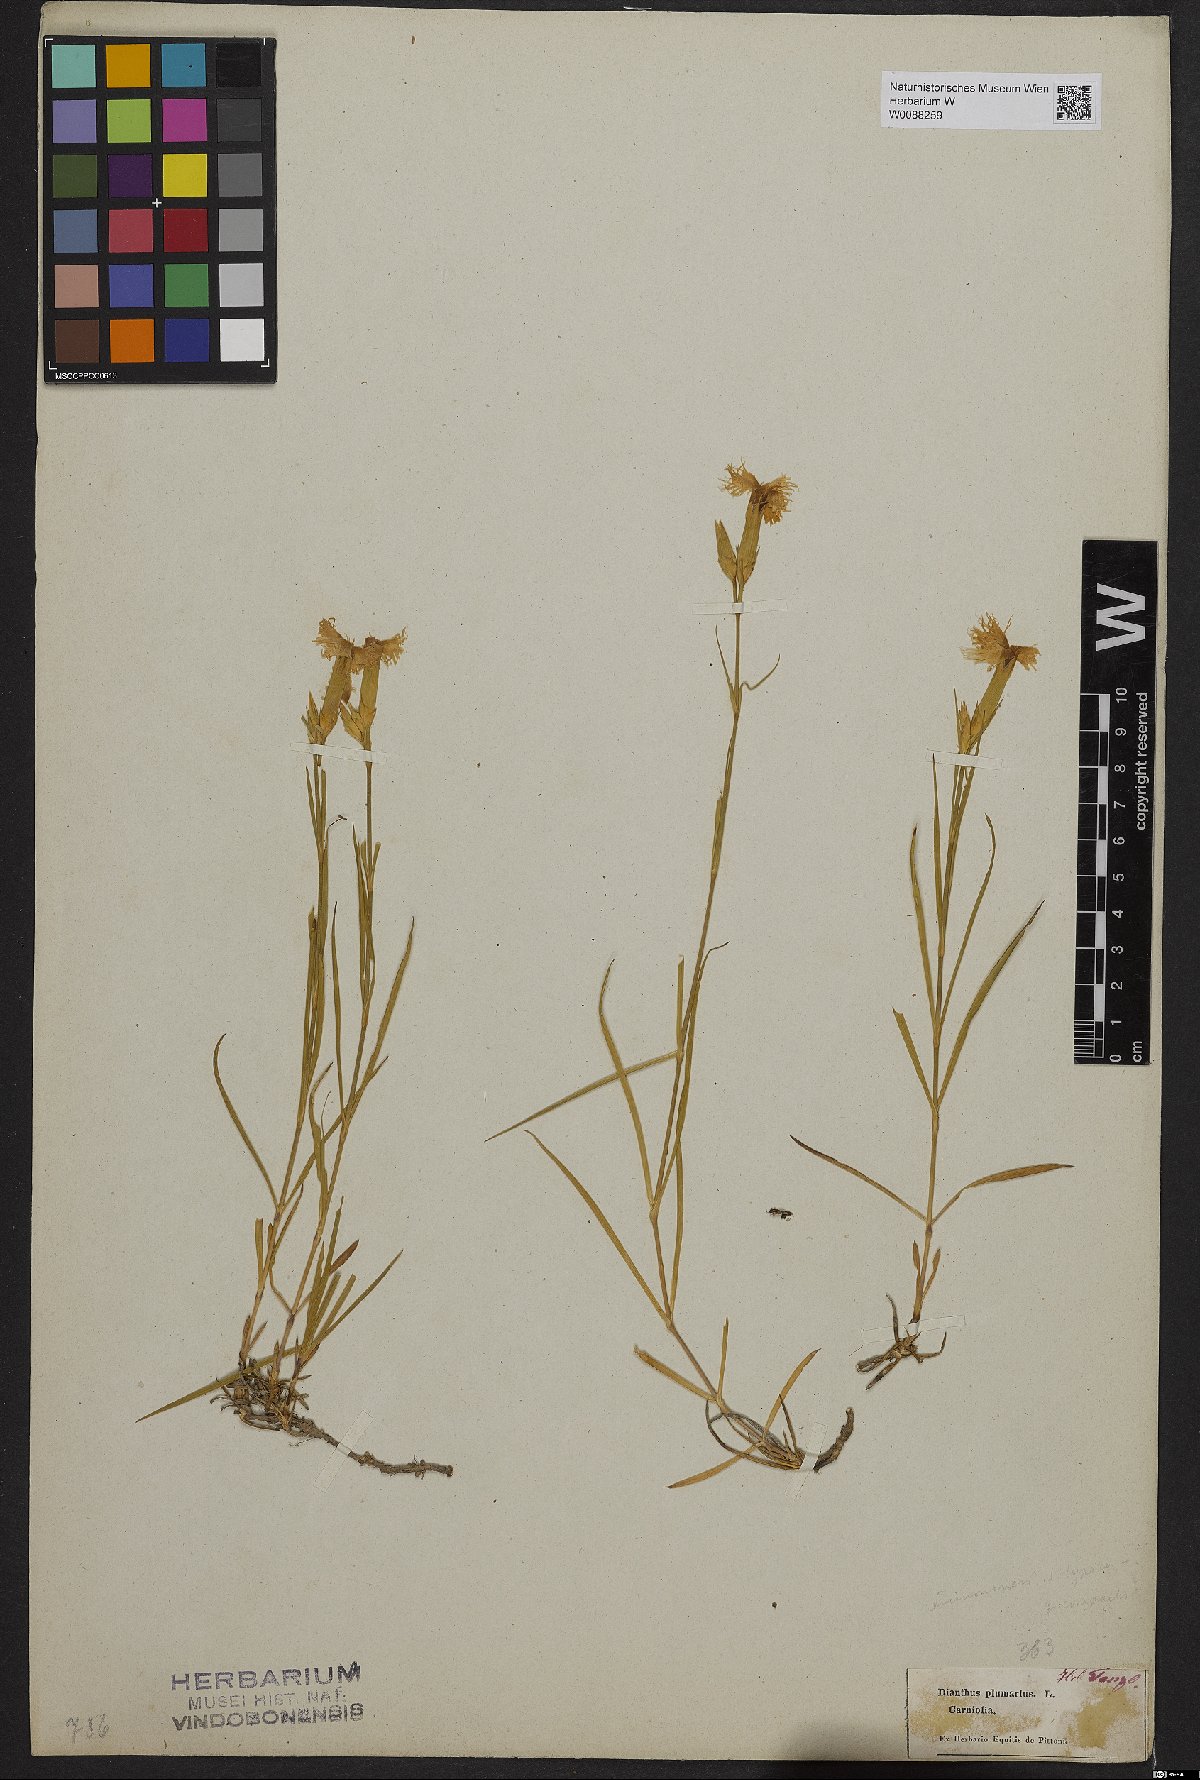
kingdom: Plantae
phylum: Tracheophyta
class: Magnoliopsida
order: Caryophyllales
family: Caryophyllaceae
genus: Dianthus
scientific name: Dianthus plumarius
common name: Pink
